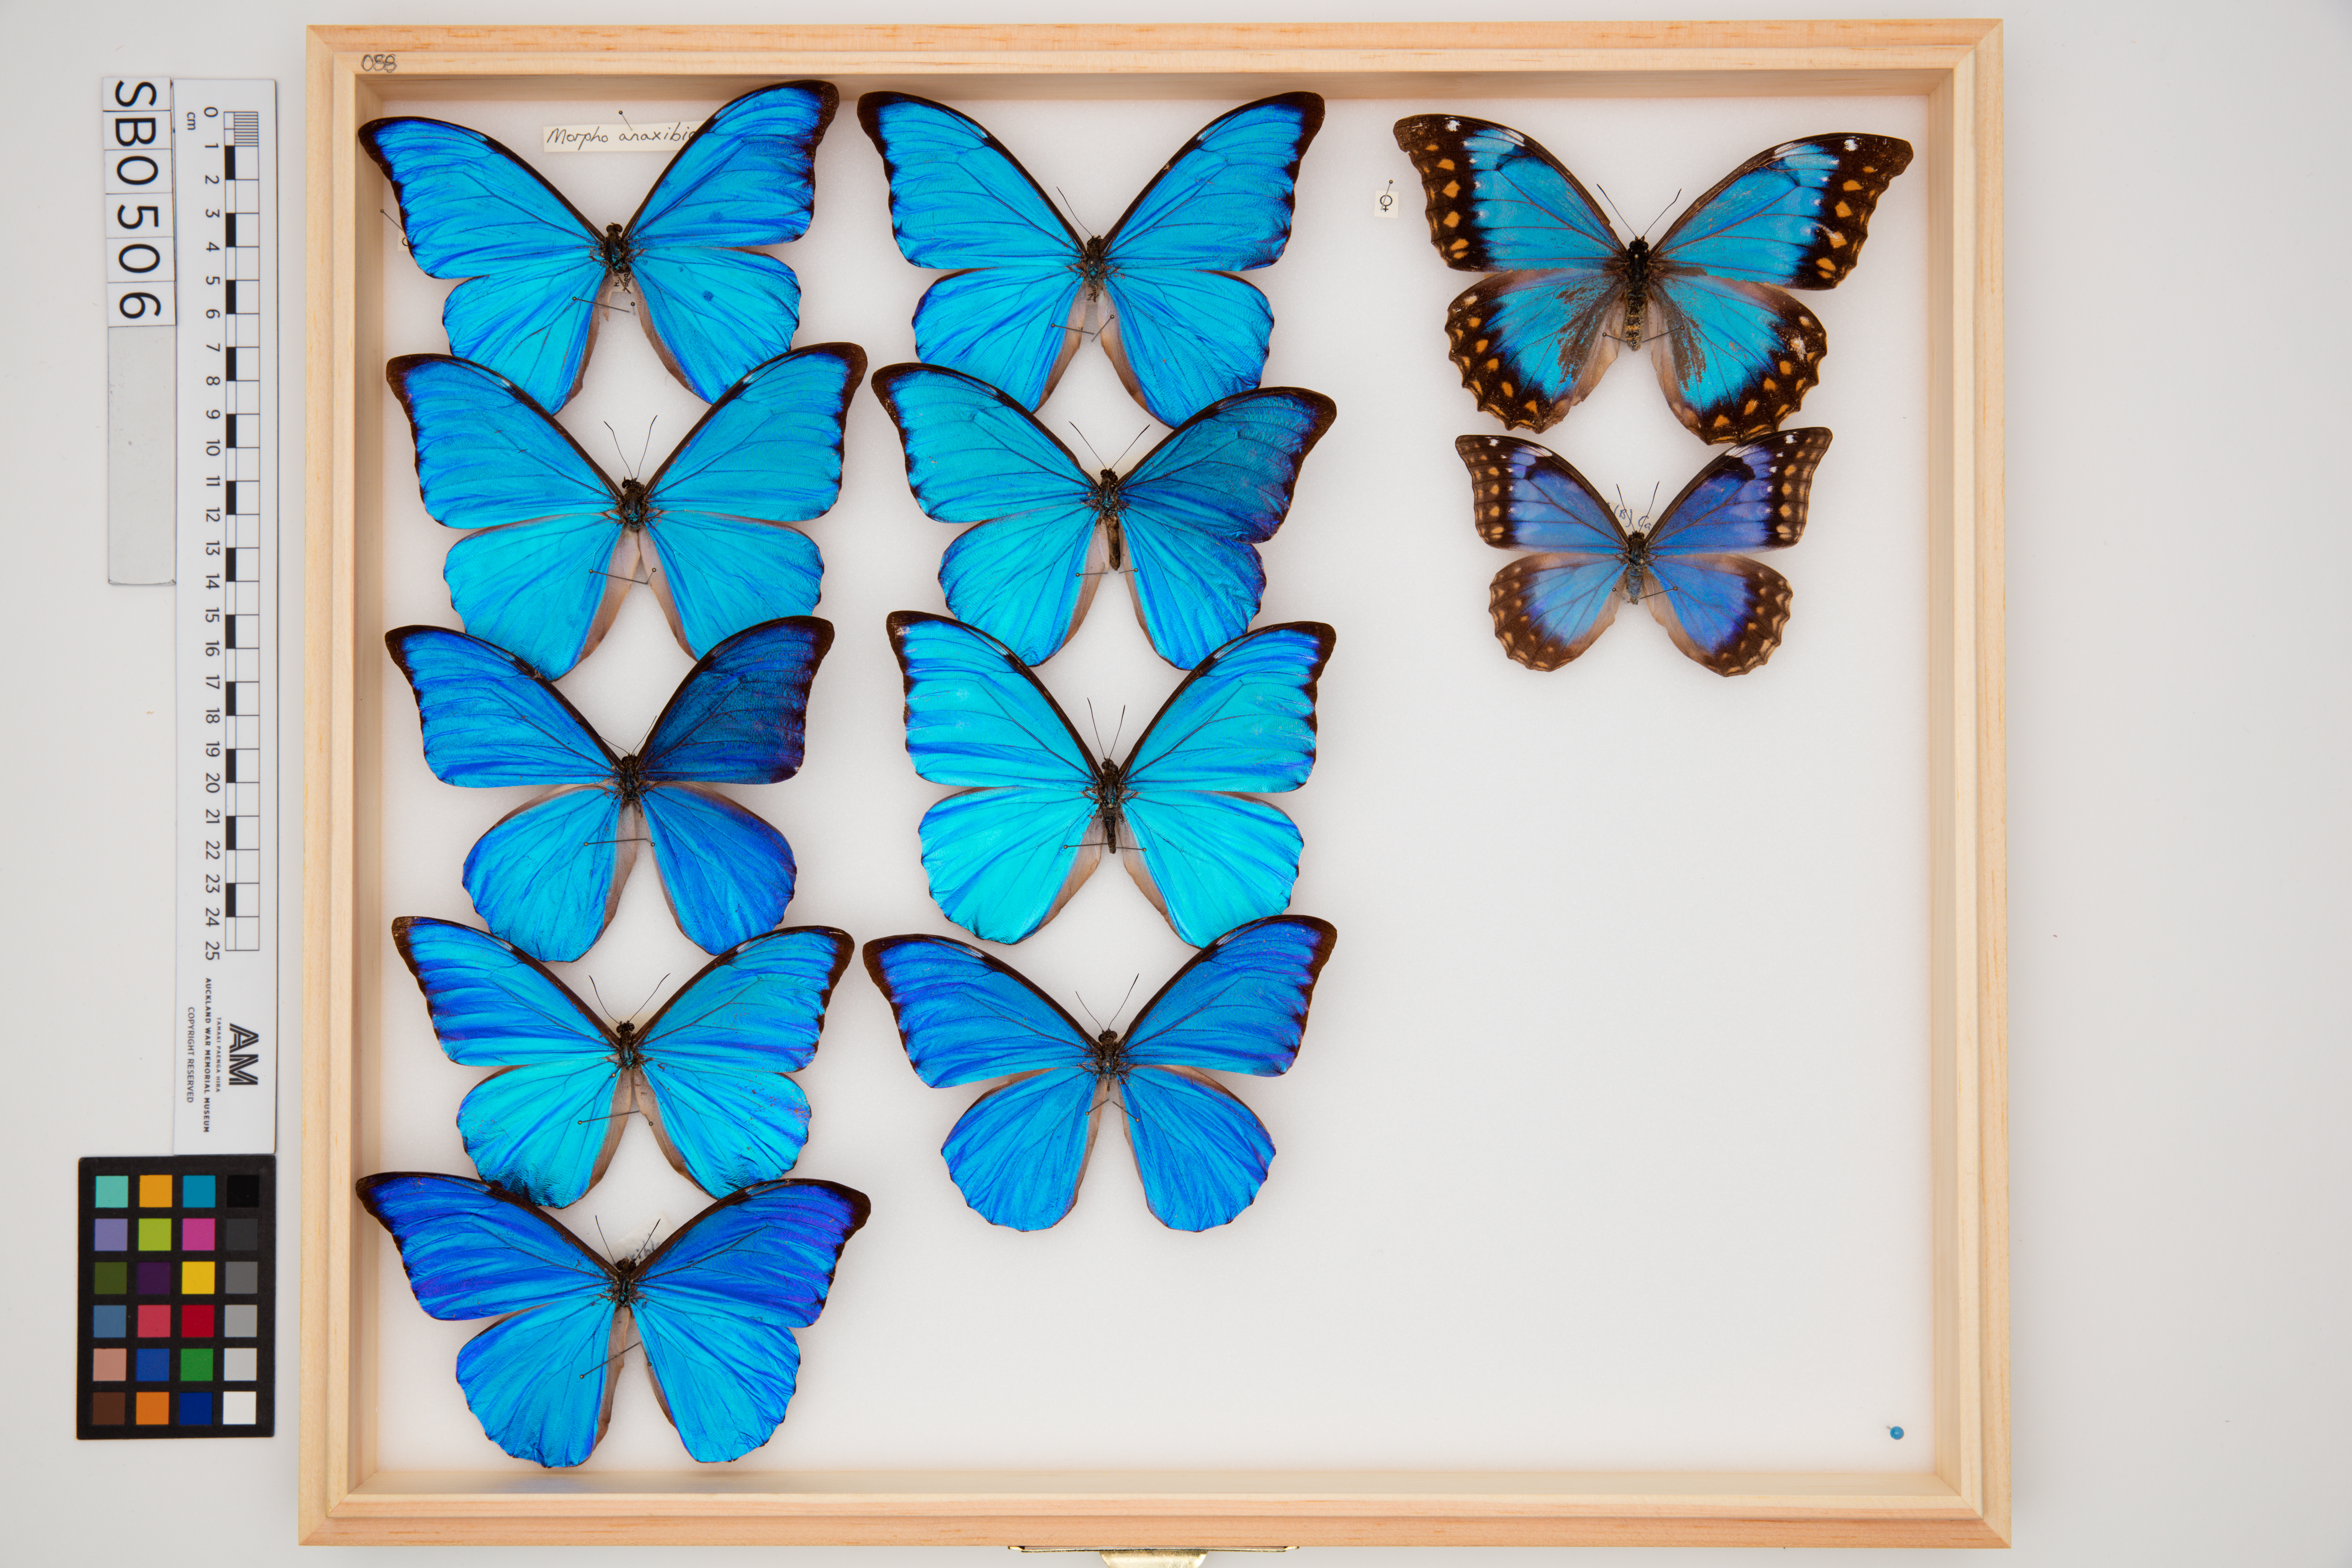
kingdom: Animalia
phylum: Arthropoda
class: Insecta
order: Lepidoptera
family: Nymphalidae
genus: Morpho
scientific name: Morpho anaxibia
